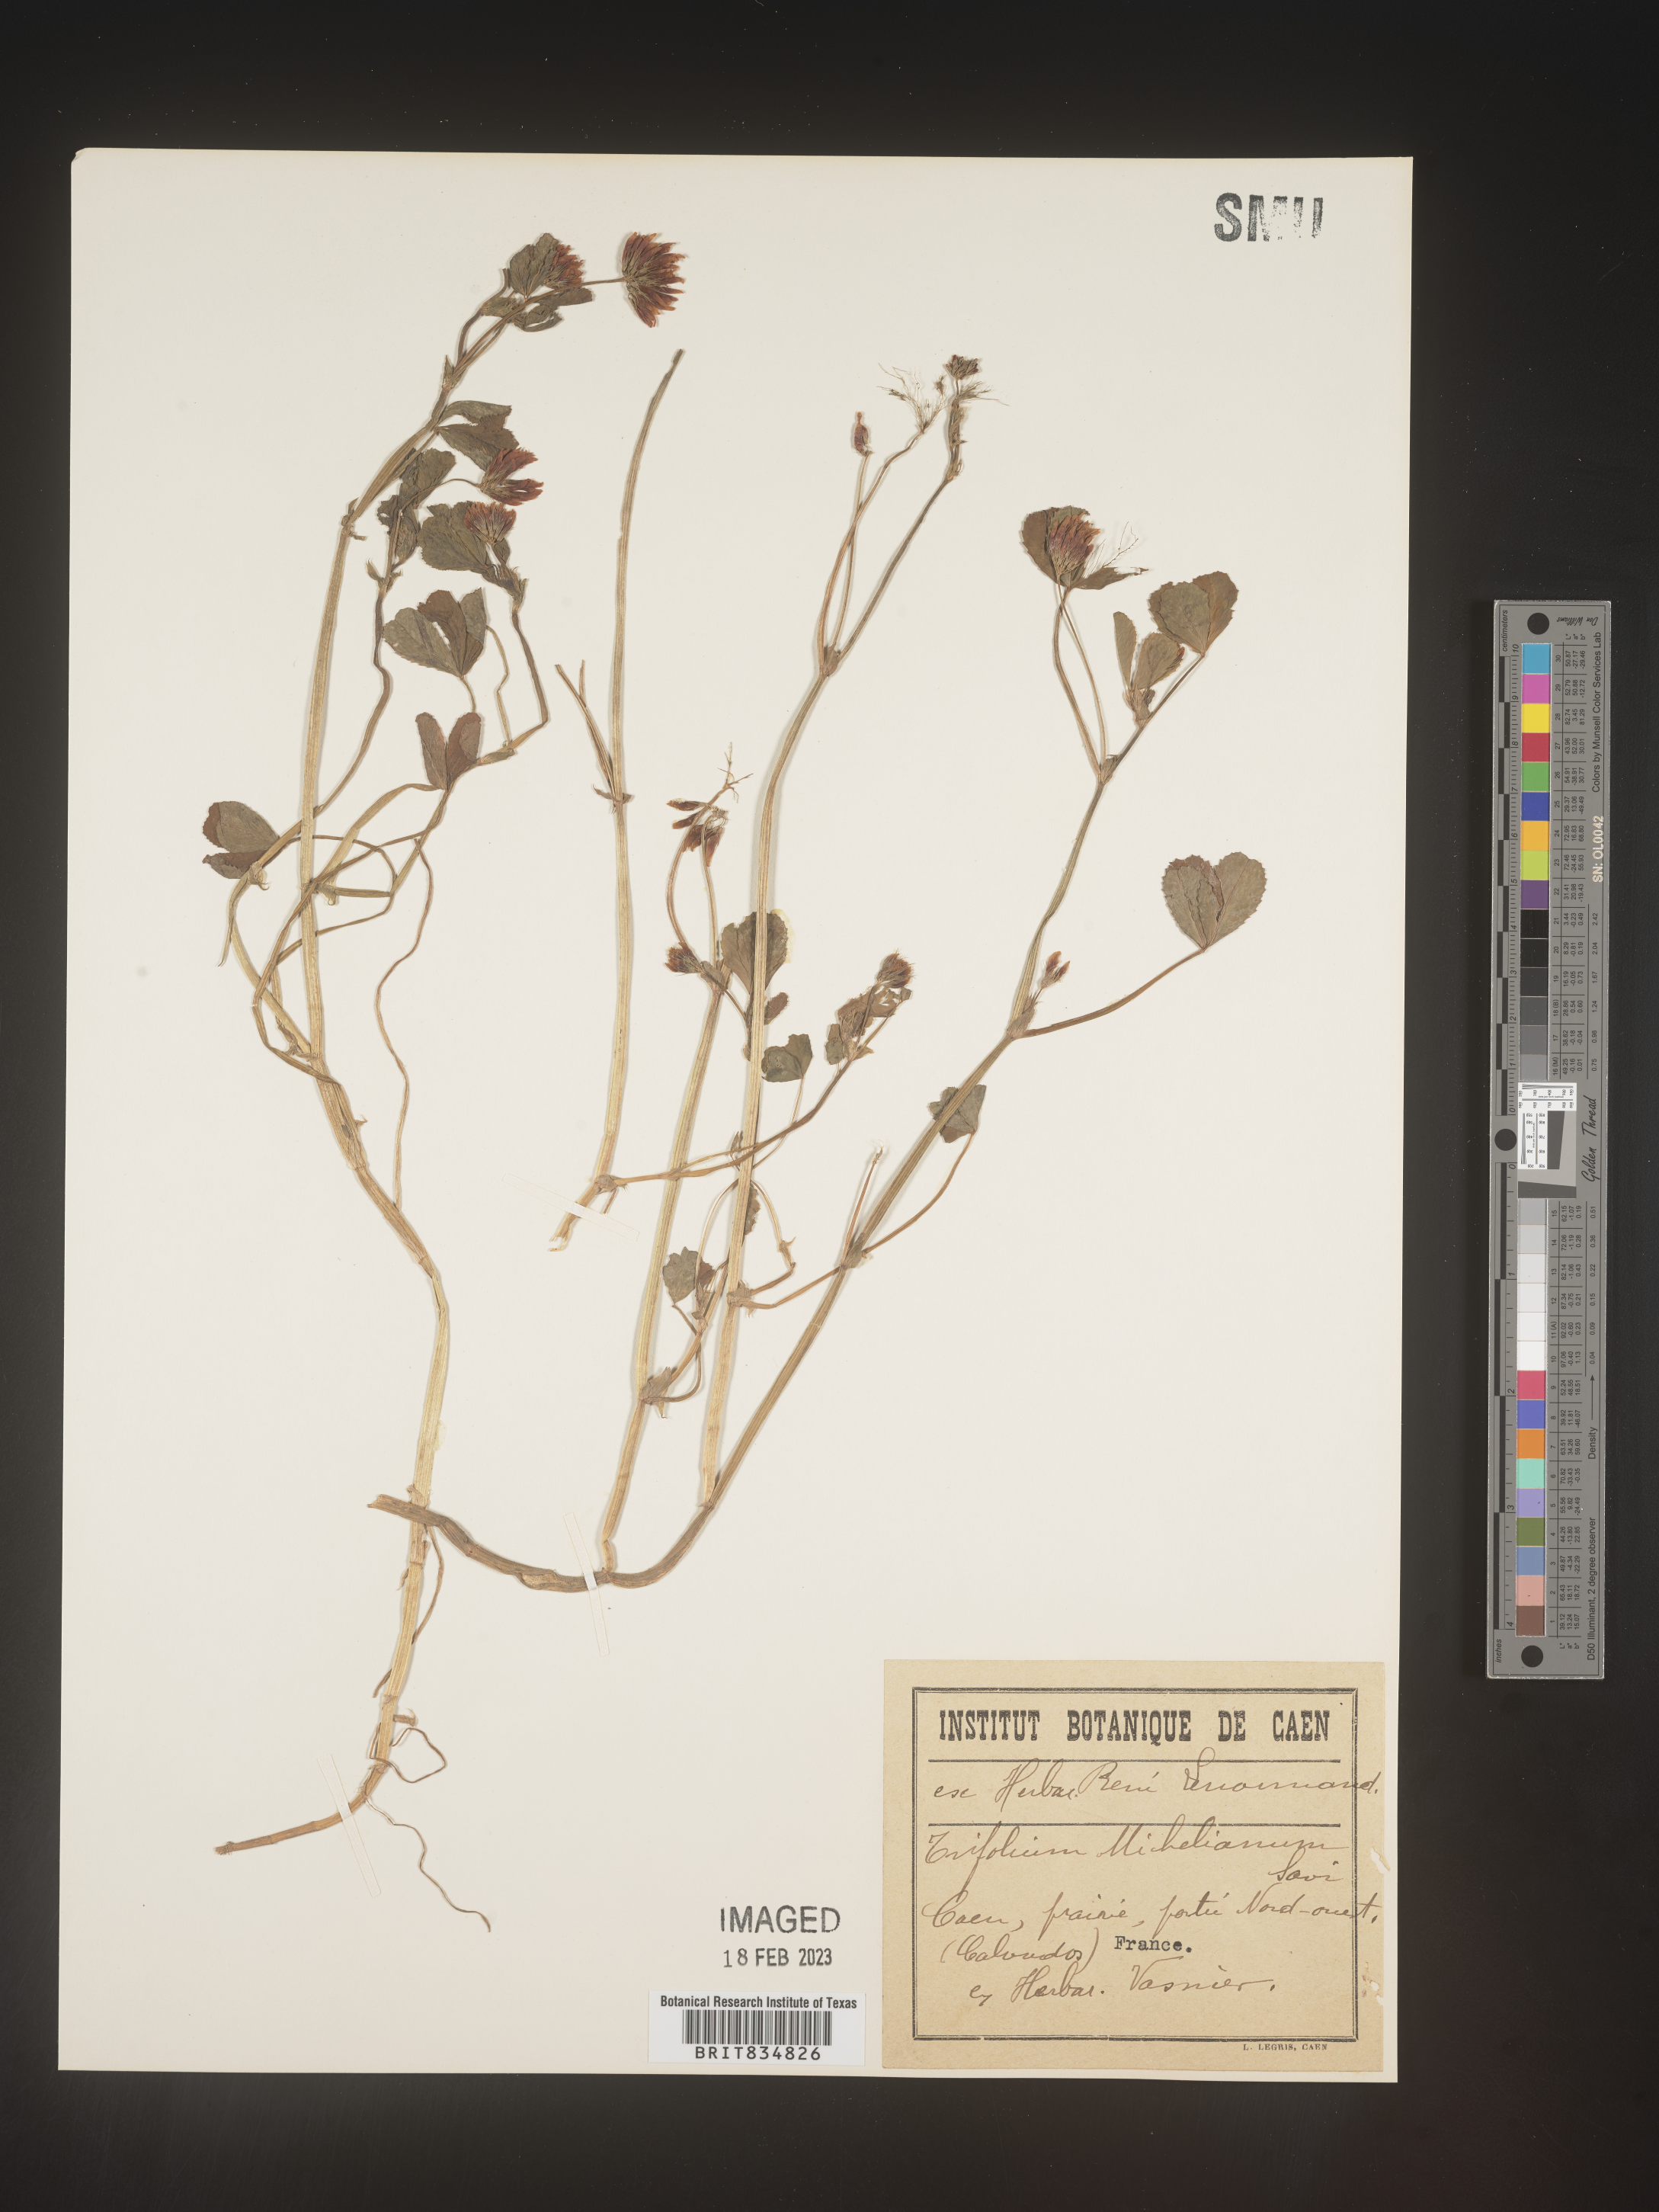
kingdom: Plantae
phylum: Tracheophyta
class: Magnoliopsida
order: Fabales
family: Fabaceae
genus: Trifolium
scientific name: Trifolium
